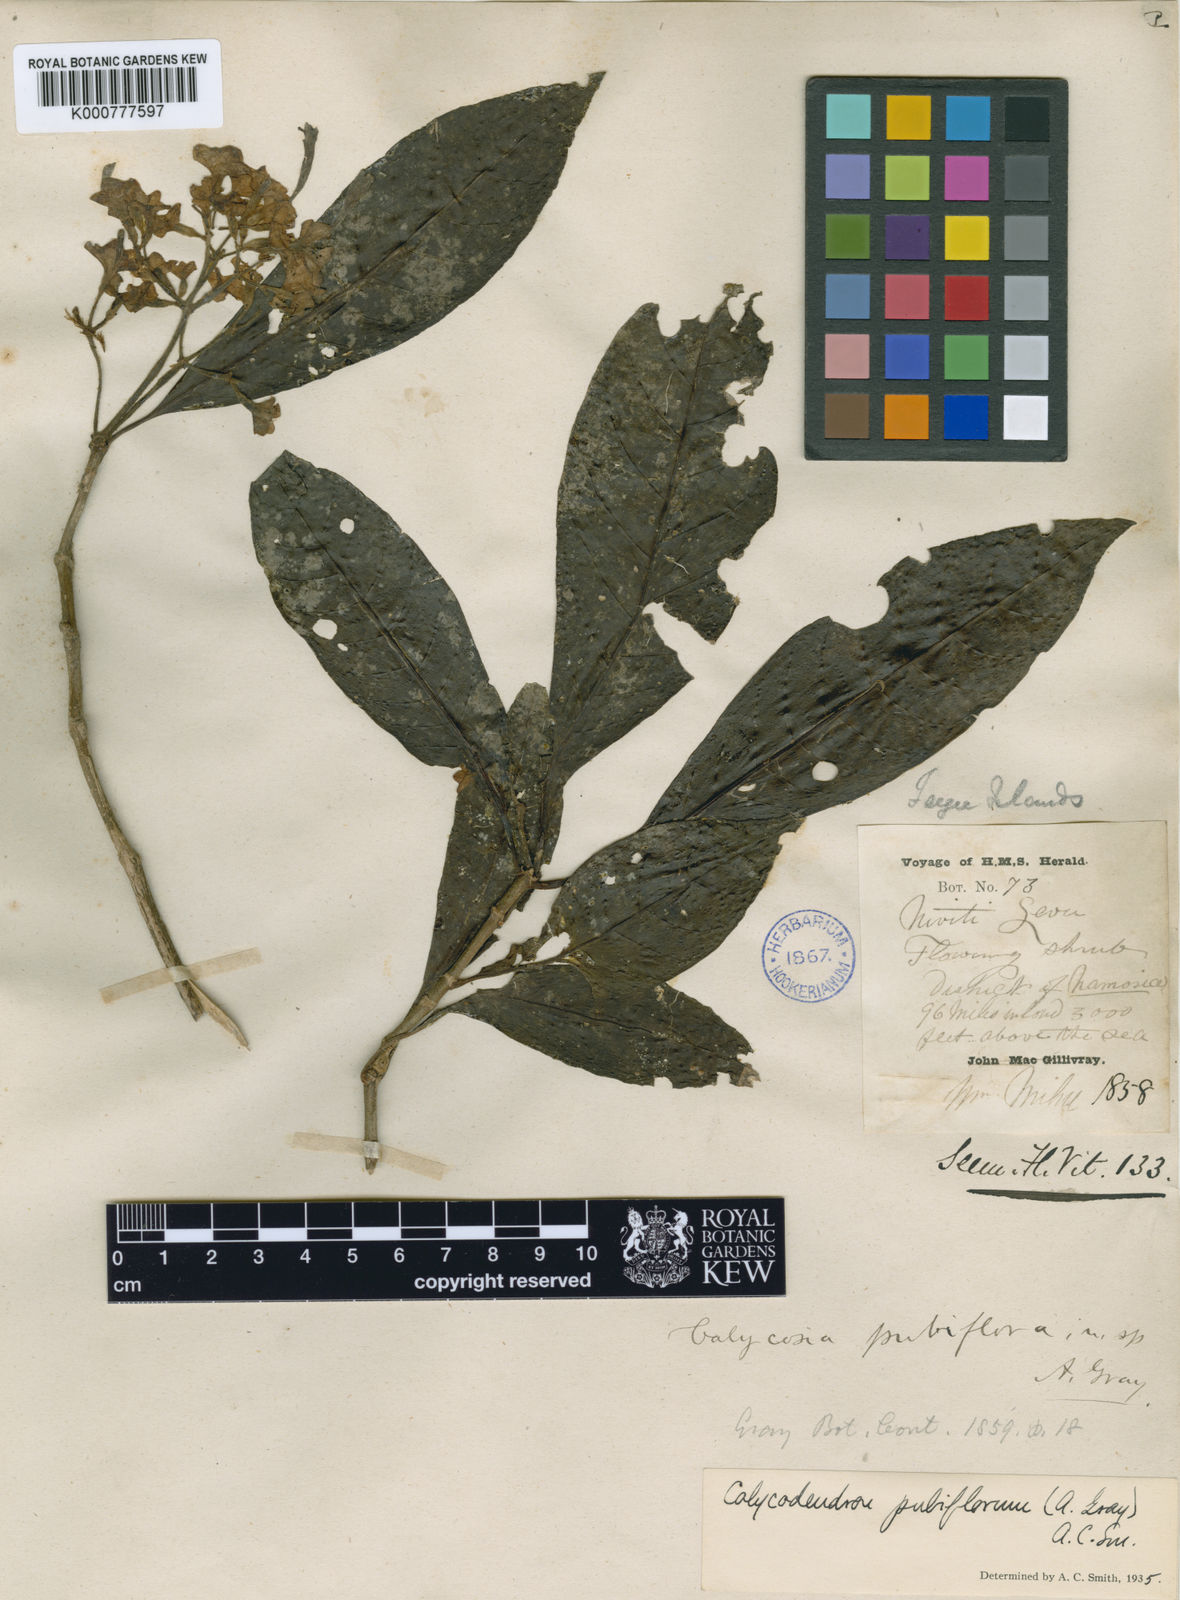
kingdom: Plantae
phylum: Tracheophyta
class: Magnoliopsida
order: Gentianales
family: Rubiaceae
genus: Psychotria
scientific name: Psychotria pubiflora
